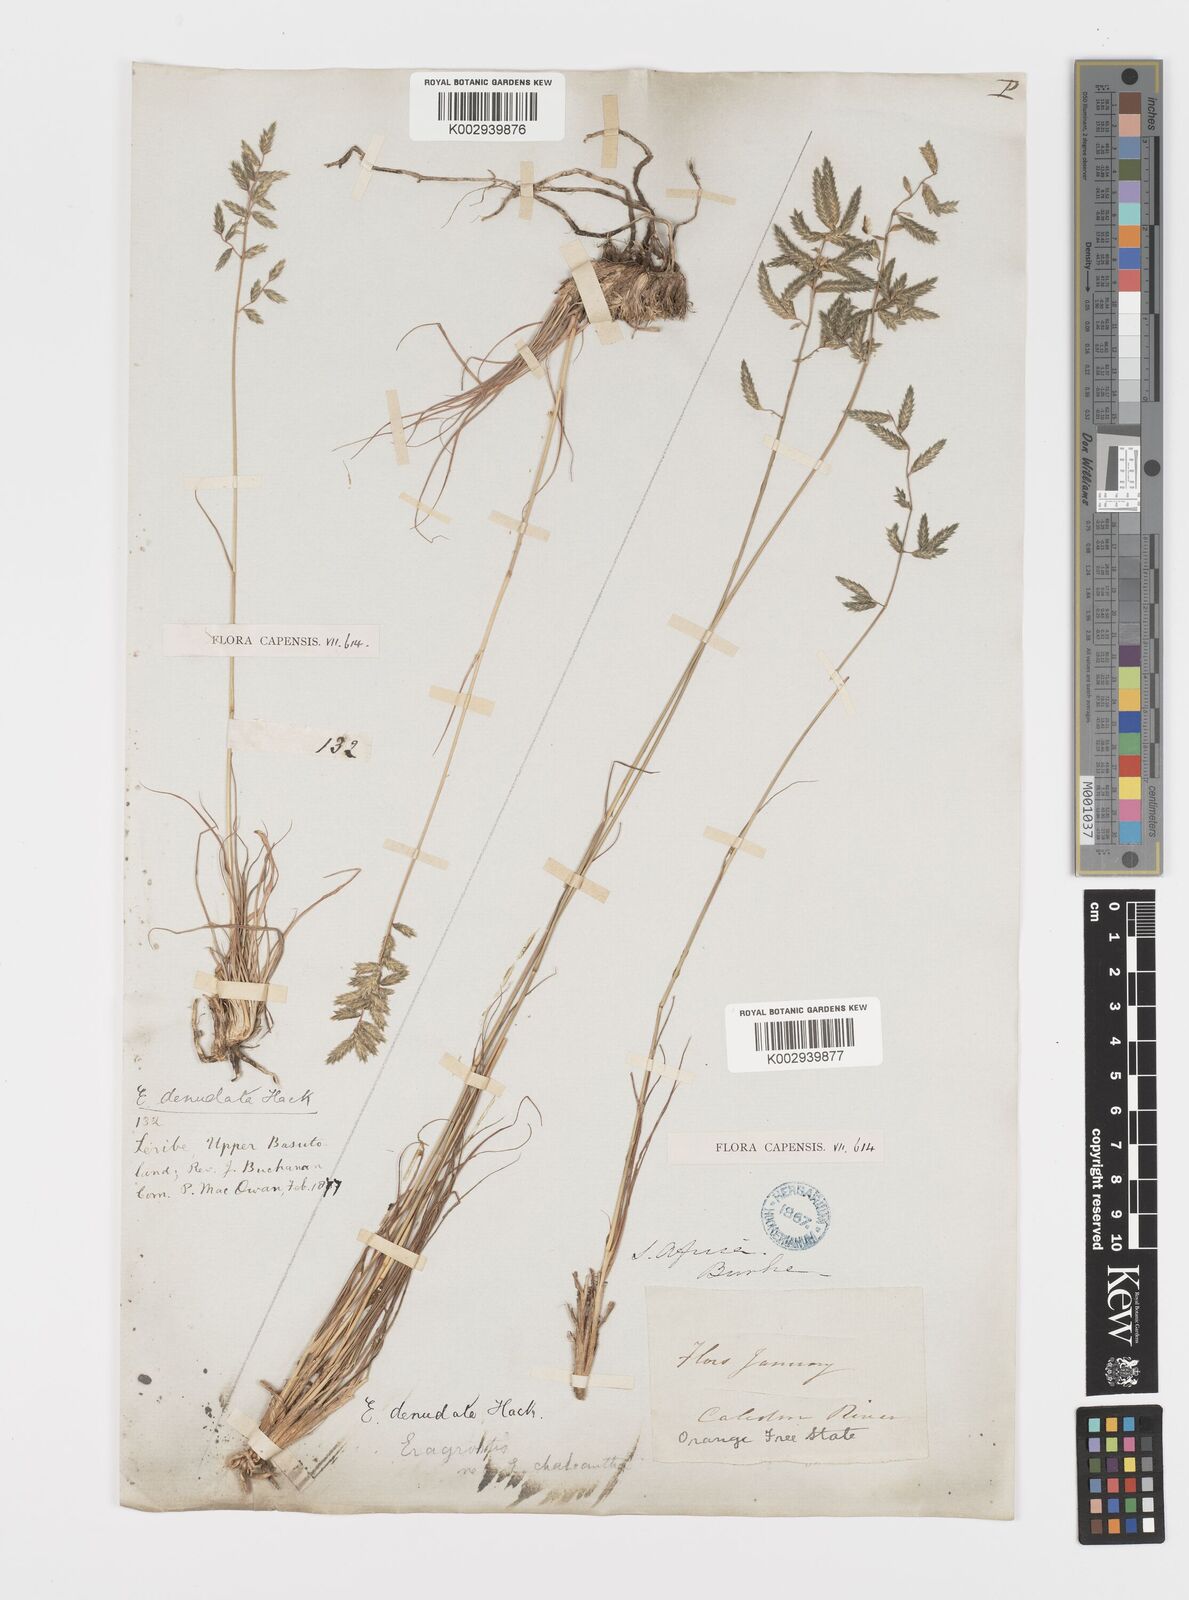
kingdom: Plantae
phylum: Tracheophyta
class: Liliopsida
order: Poales
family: Poaceae
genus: Eragrostis
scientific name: Eragrostis nindensis
